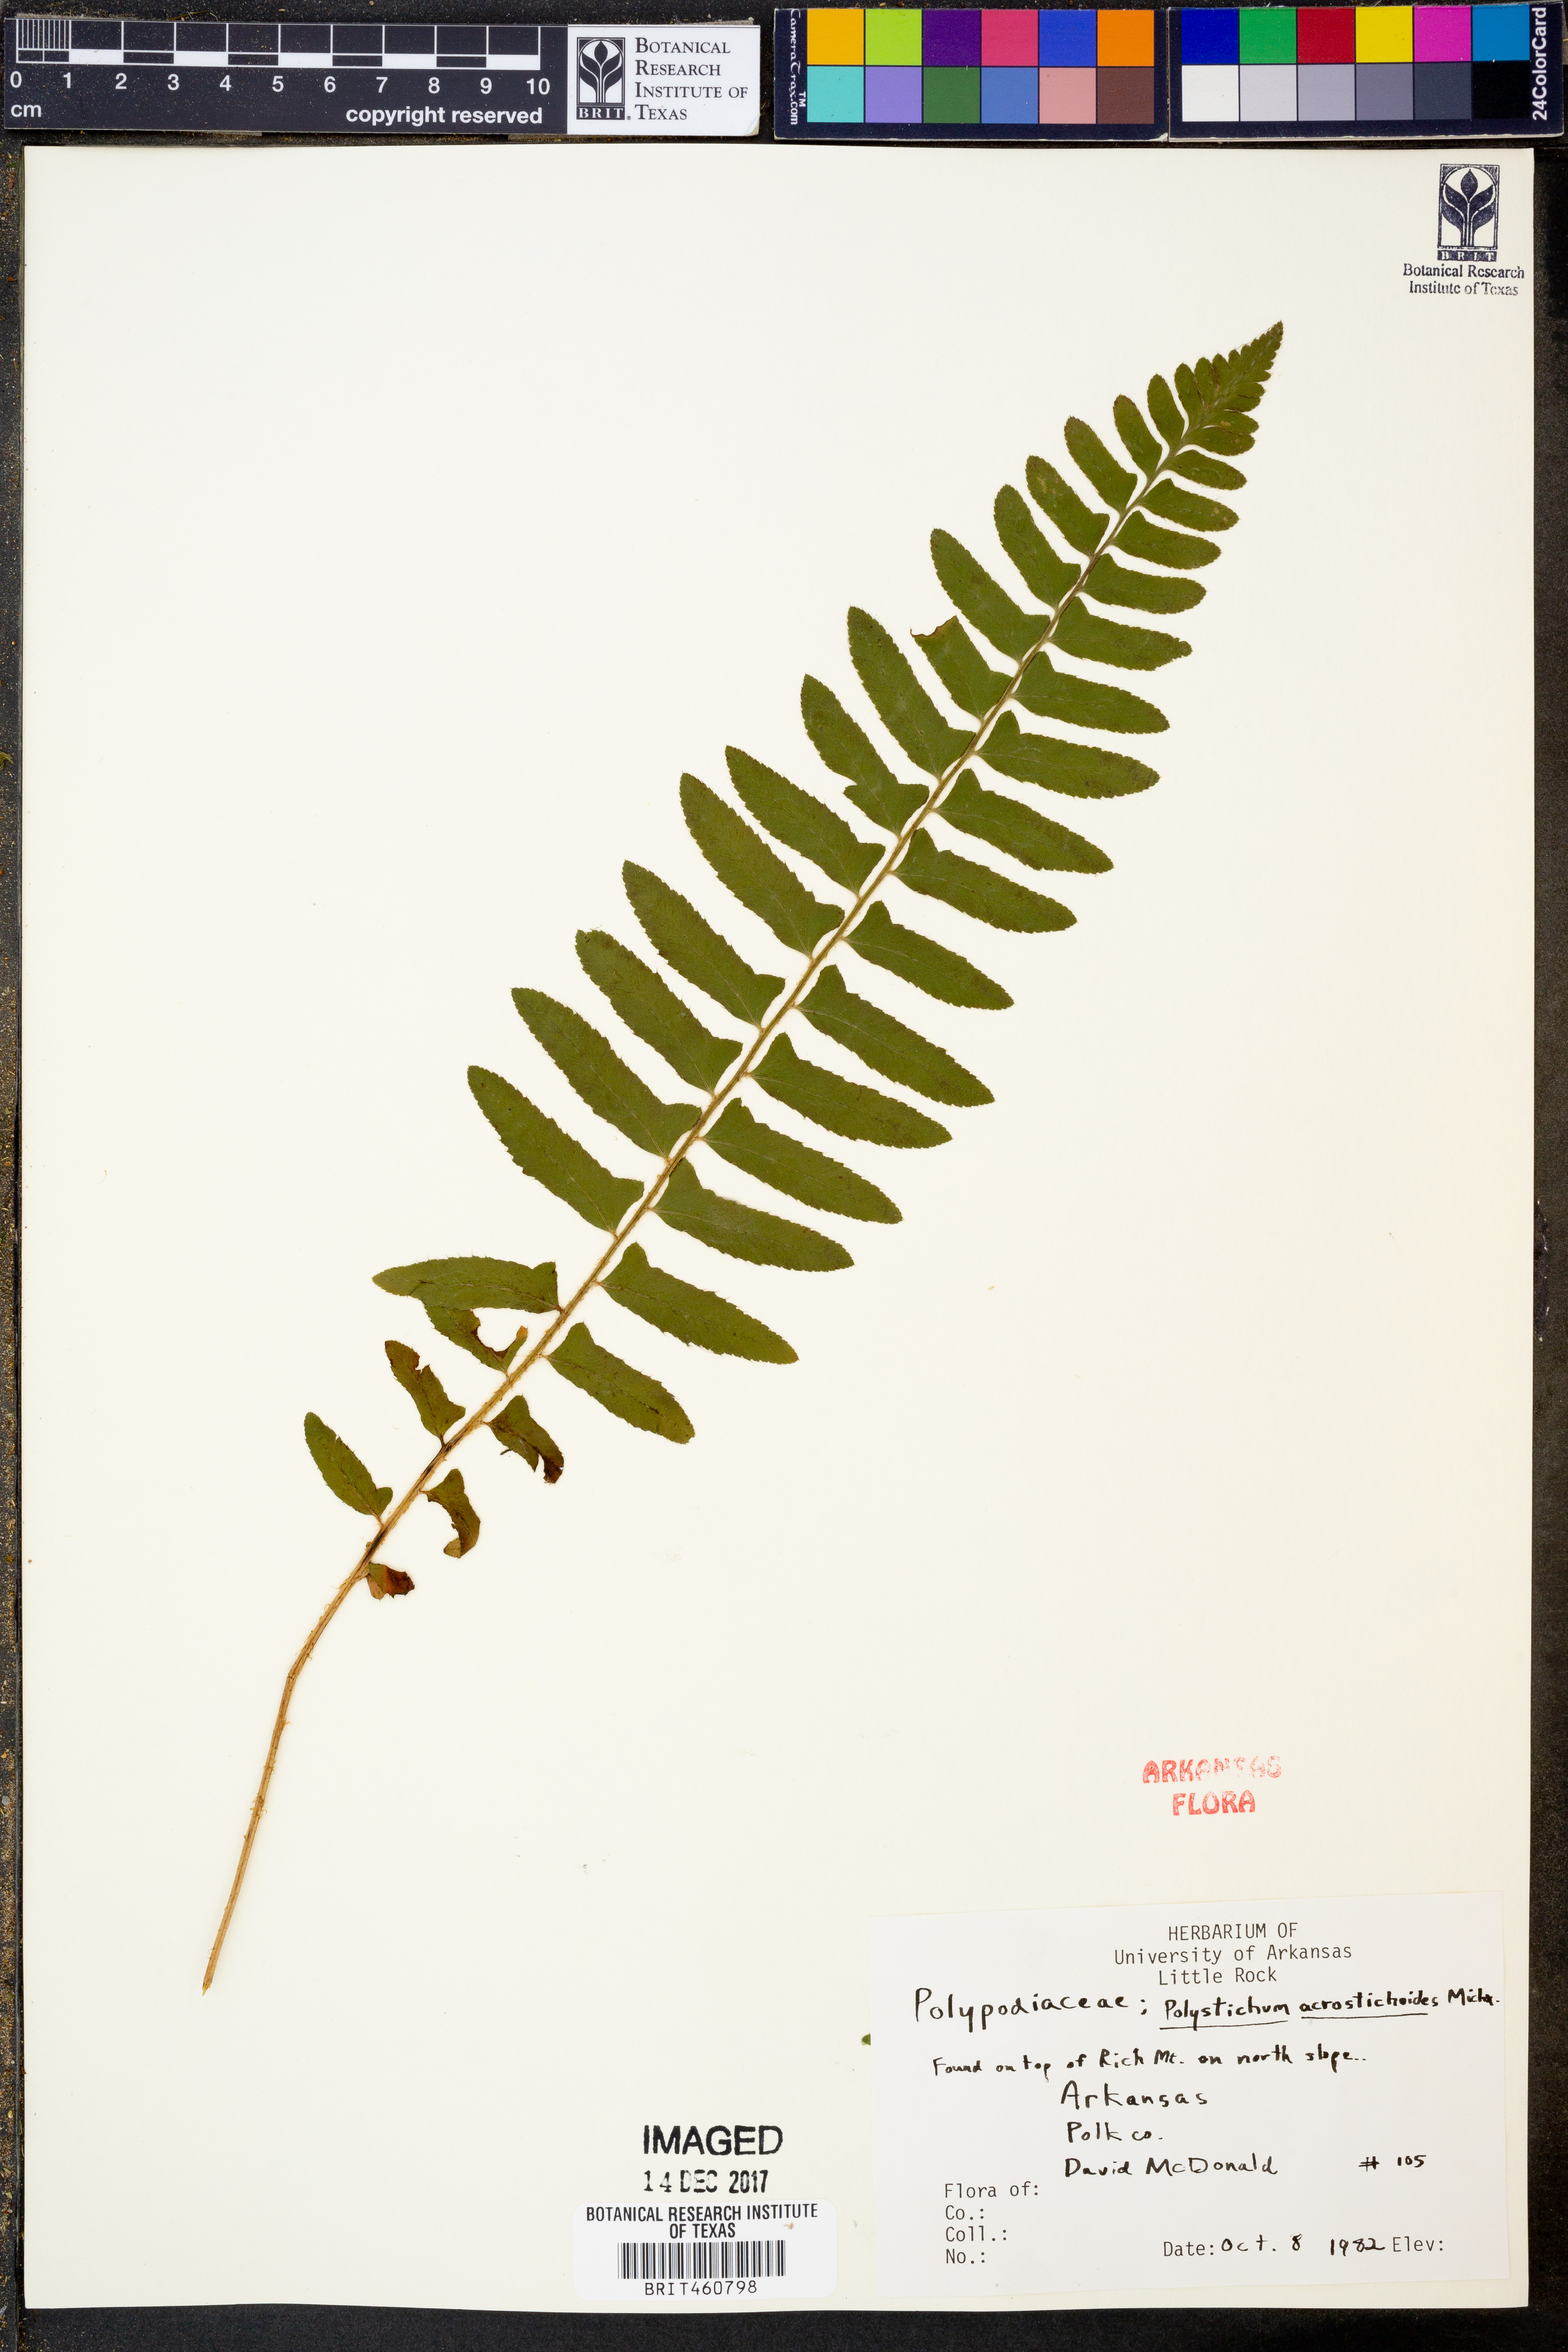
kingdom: Plantae
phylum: Tracheophyta
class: Polypodiopsida
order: Polypodiales
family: Dryopteridaceae
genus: Polystichum
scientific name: Polystichum acrostichoides
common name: Christmas fern
